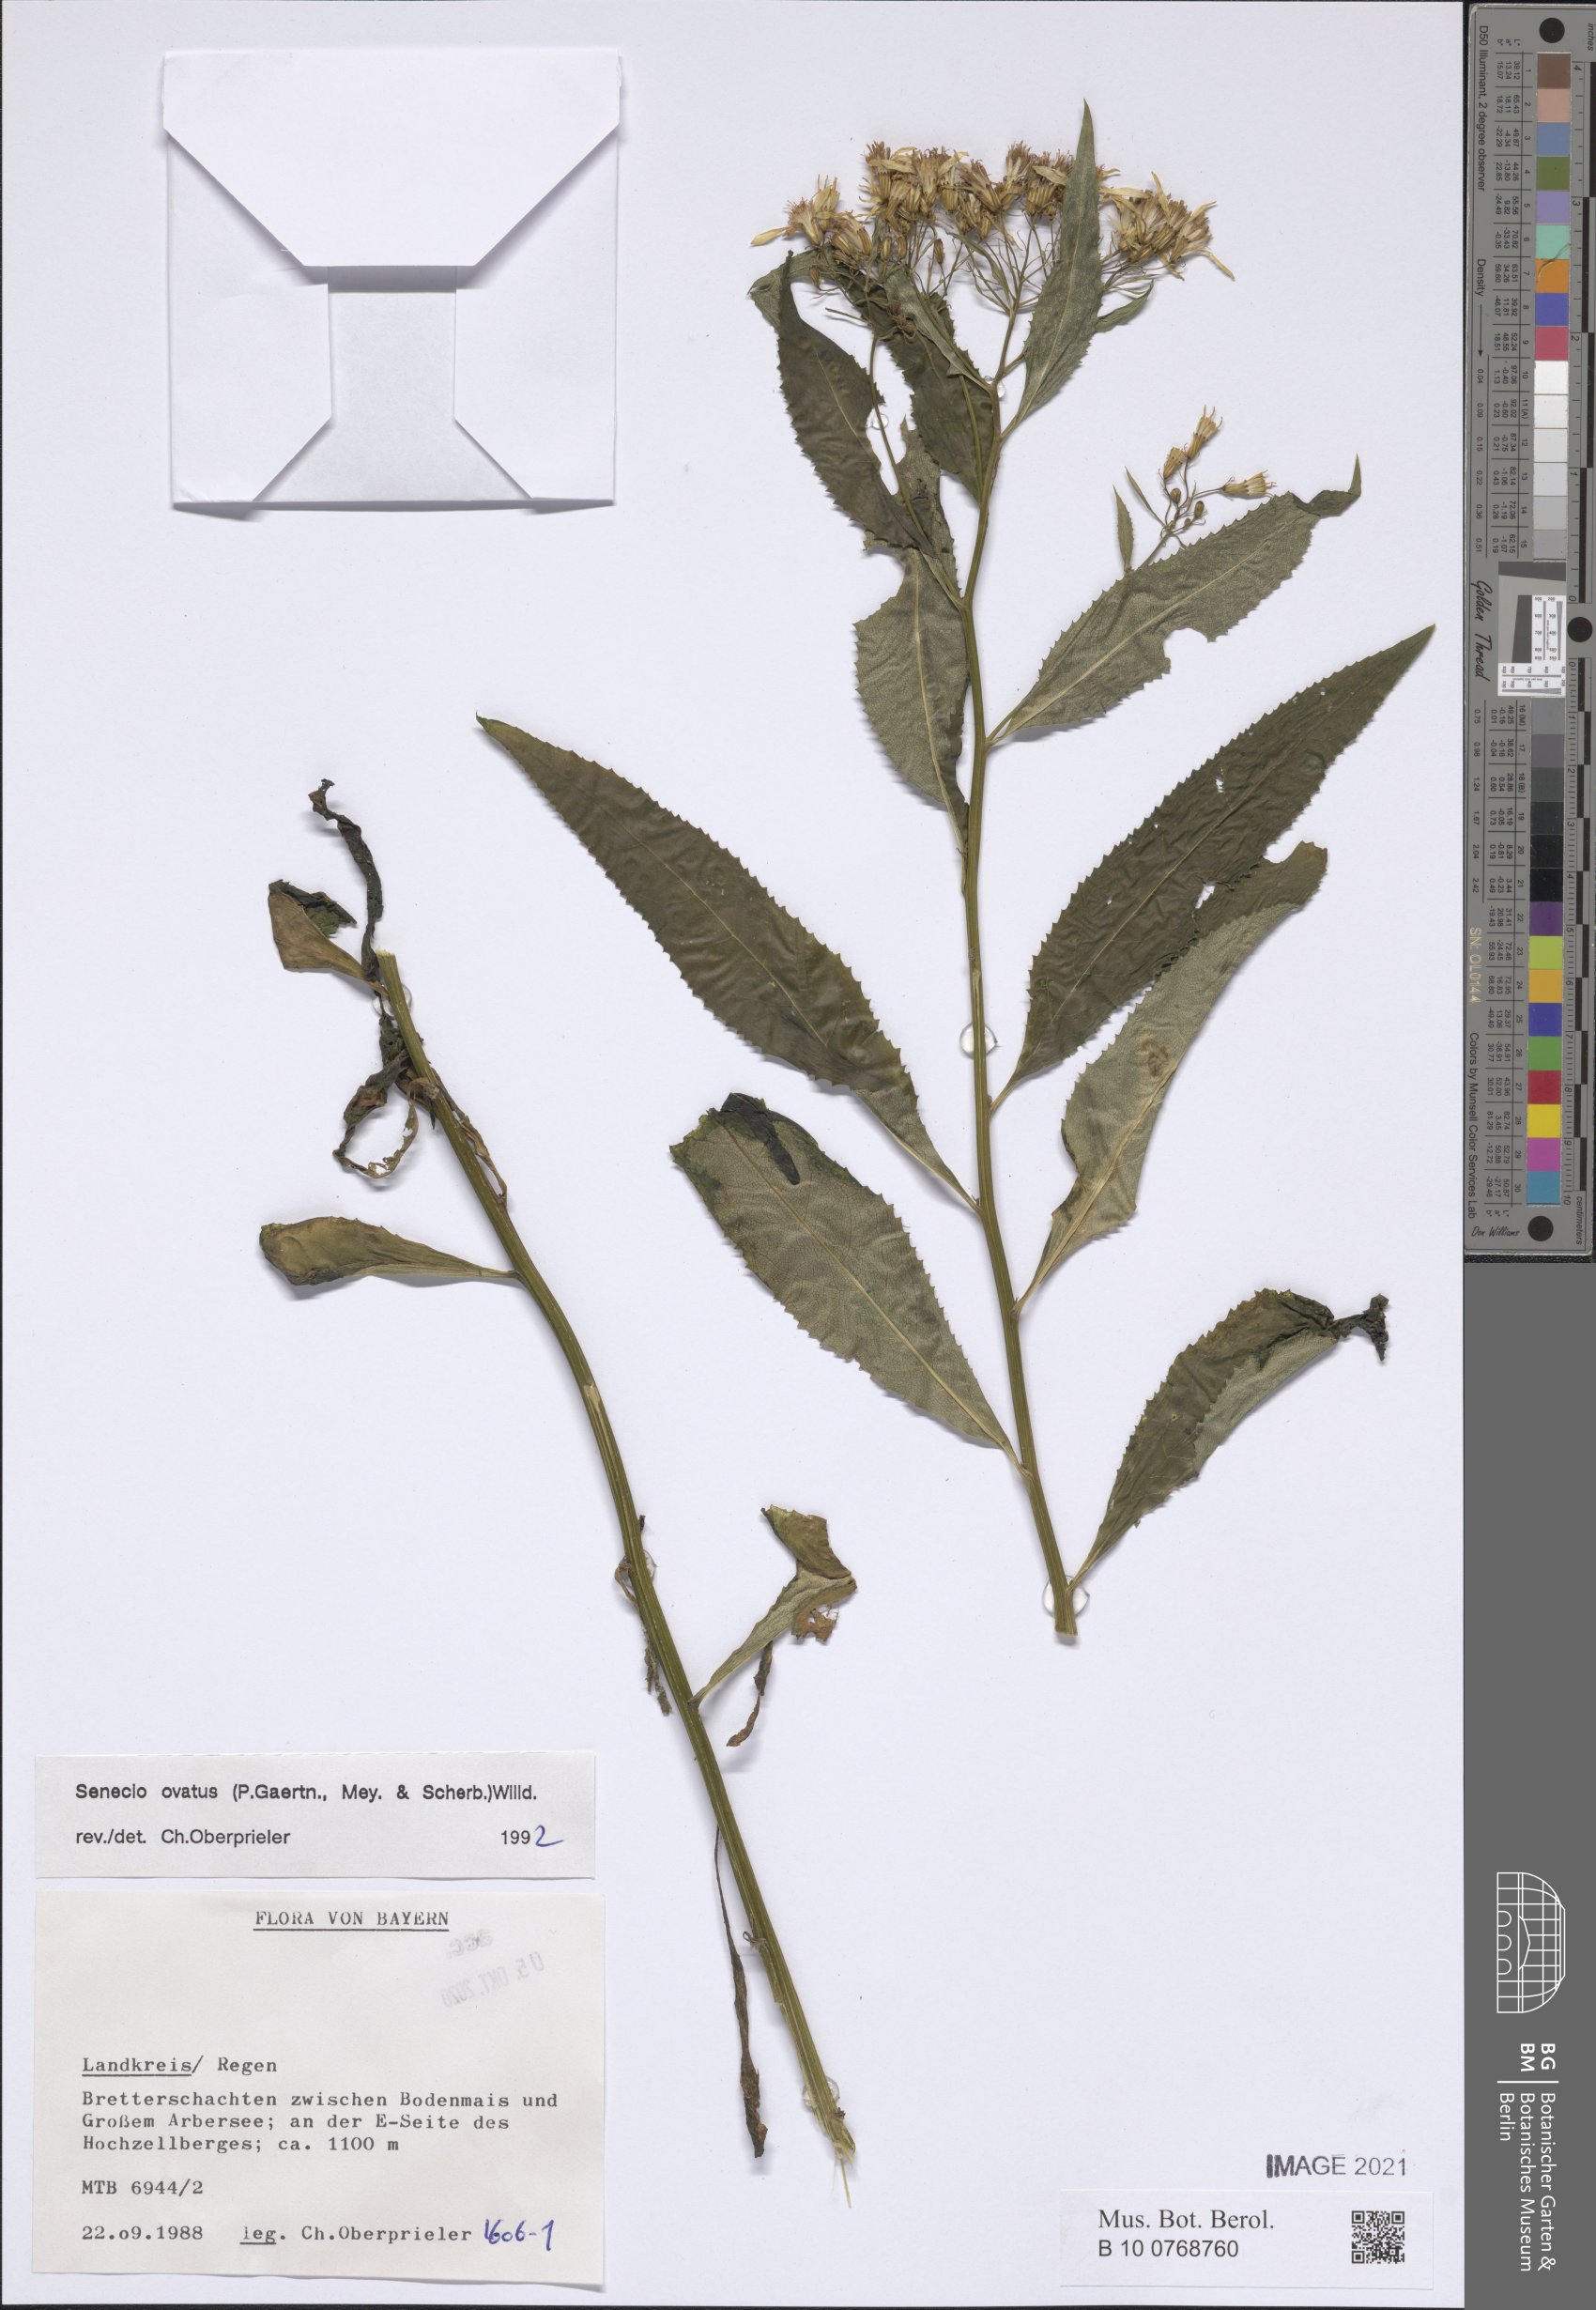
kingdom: Plantae
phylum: Tracheophyta
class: Magnoliopsida
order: Asterales
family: Asteraceae
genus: Senecio
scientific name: Senecio ovatus
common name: Wood ragwort
